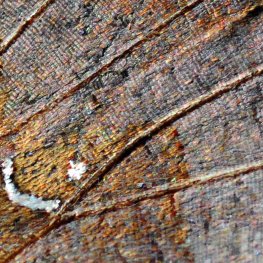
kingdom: Animalia
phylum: Arthropoda
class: Insecta
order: Lepidoptera
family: Nymphalidae
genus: Polygonia
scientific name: Polygonia interrogationis
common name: Question Mark
